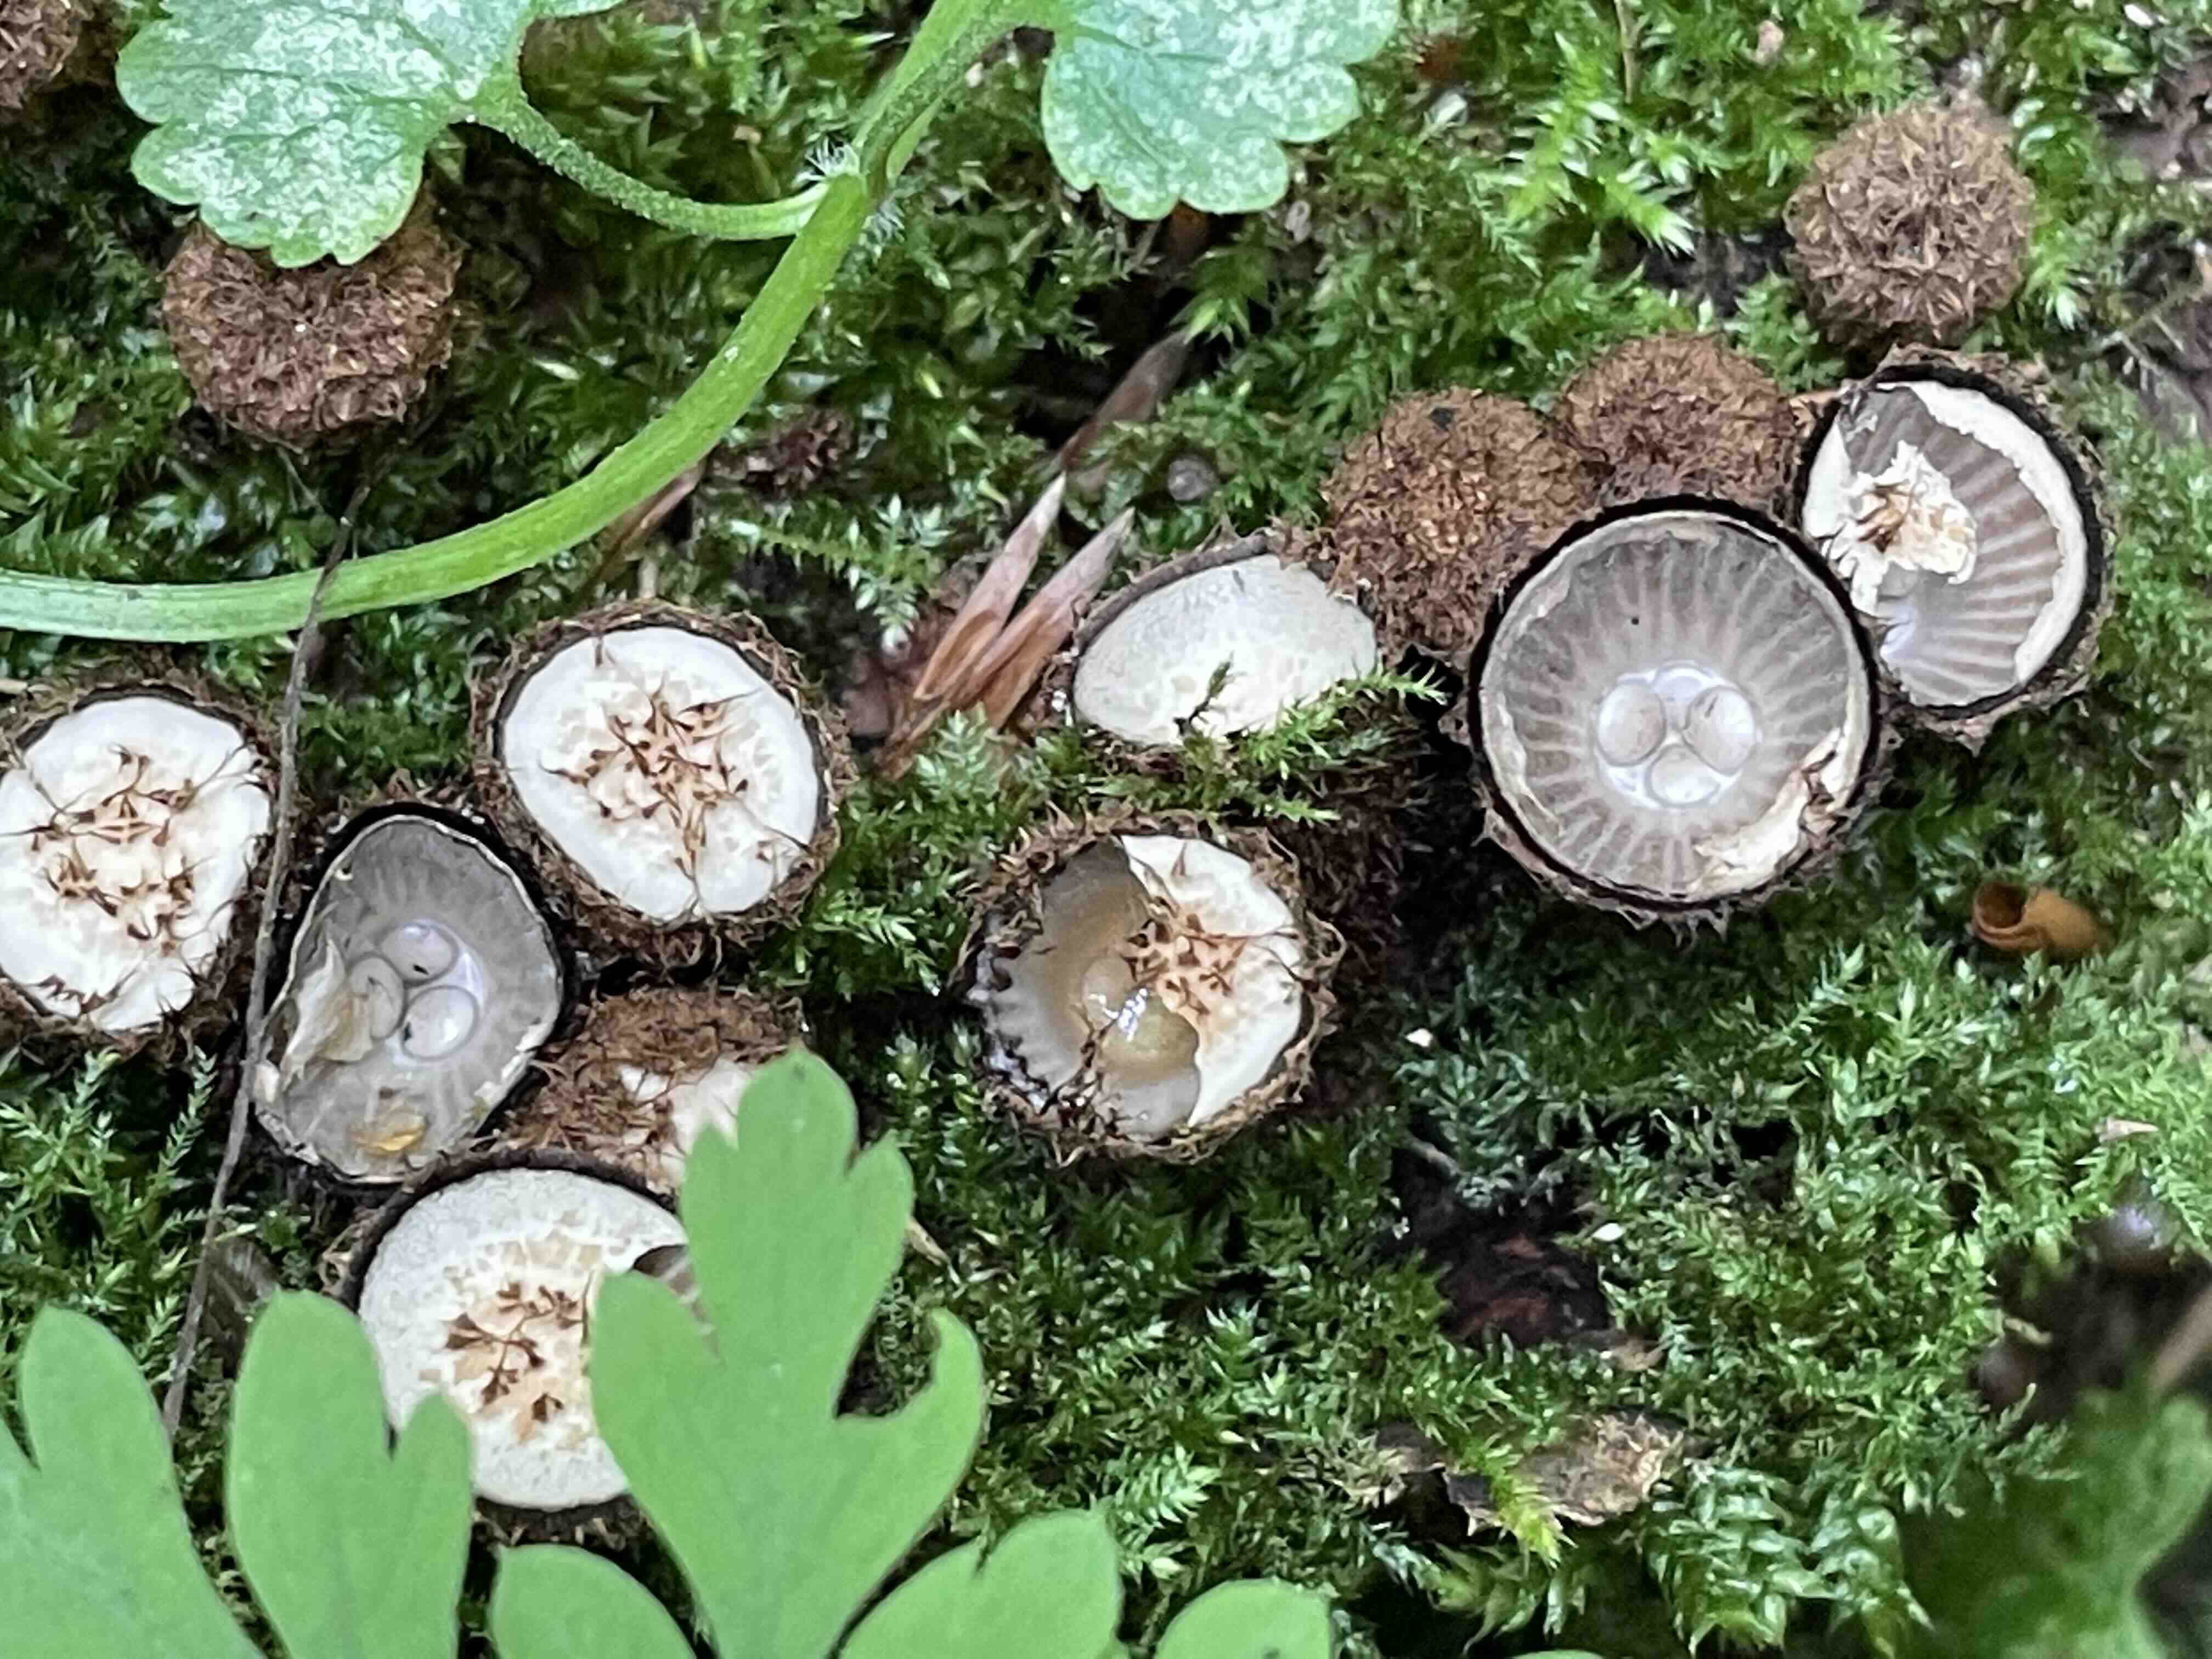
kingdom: Fungi
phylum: Basidiomycota
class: Agaricomycetes
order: Agaricales
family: Agaricaceae
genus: Cyathus
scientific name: Cyathus striatus
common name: stribet redesvamp
